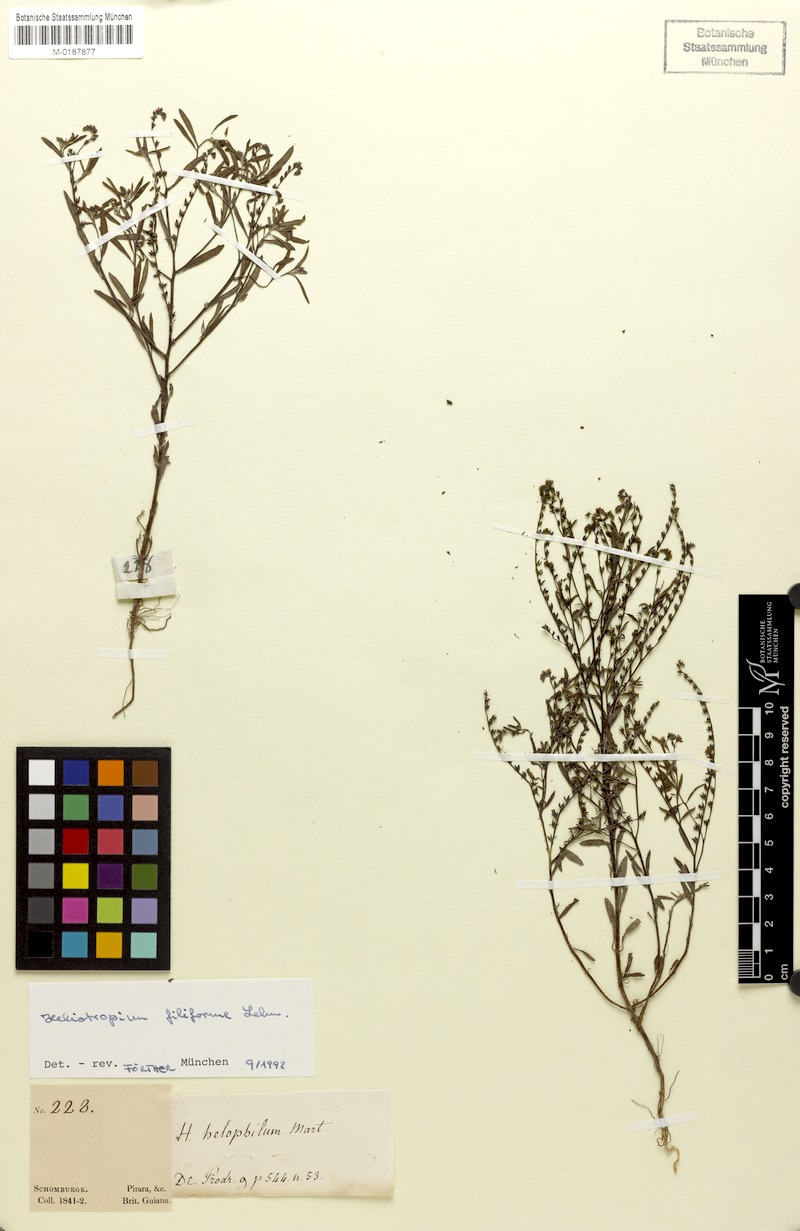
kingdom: Plantae
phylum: Tracheophyta
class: Magnoliopsida
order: Boraginales
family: Heliotropiaceae
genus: Euploca
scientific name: Euploca filiformis
